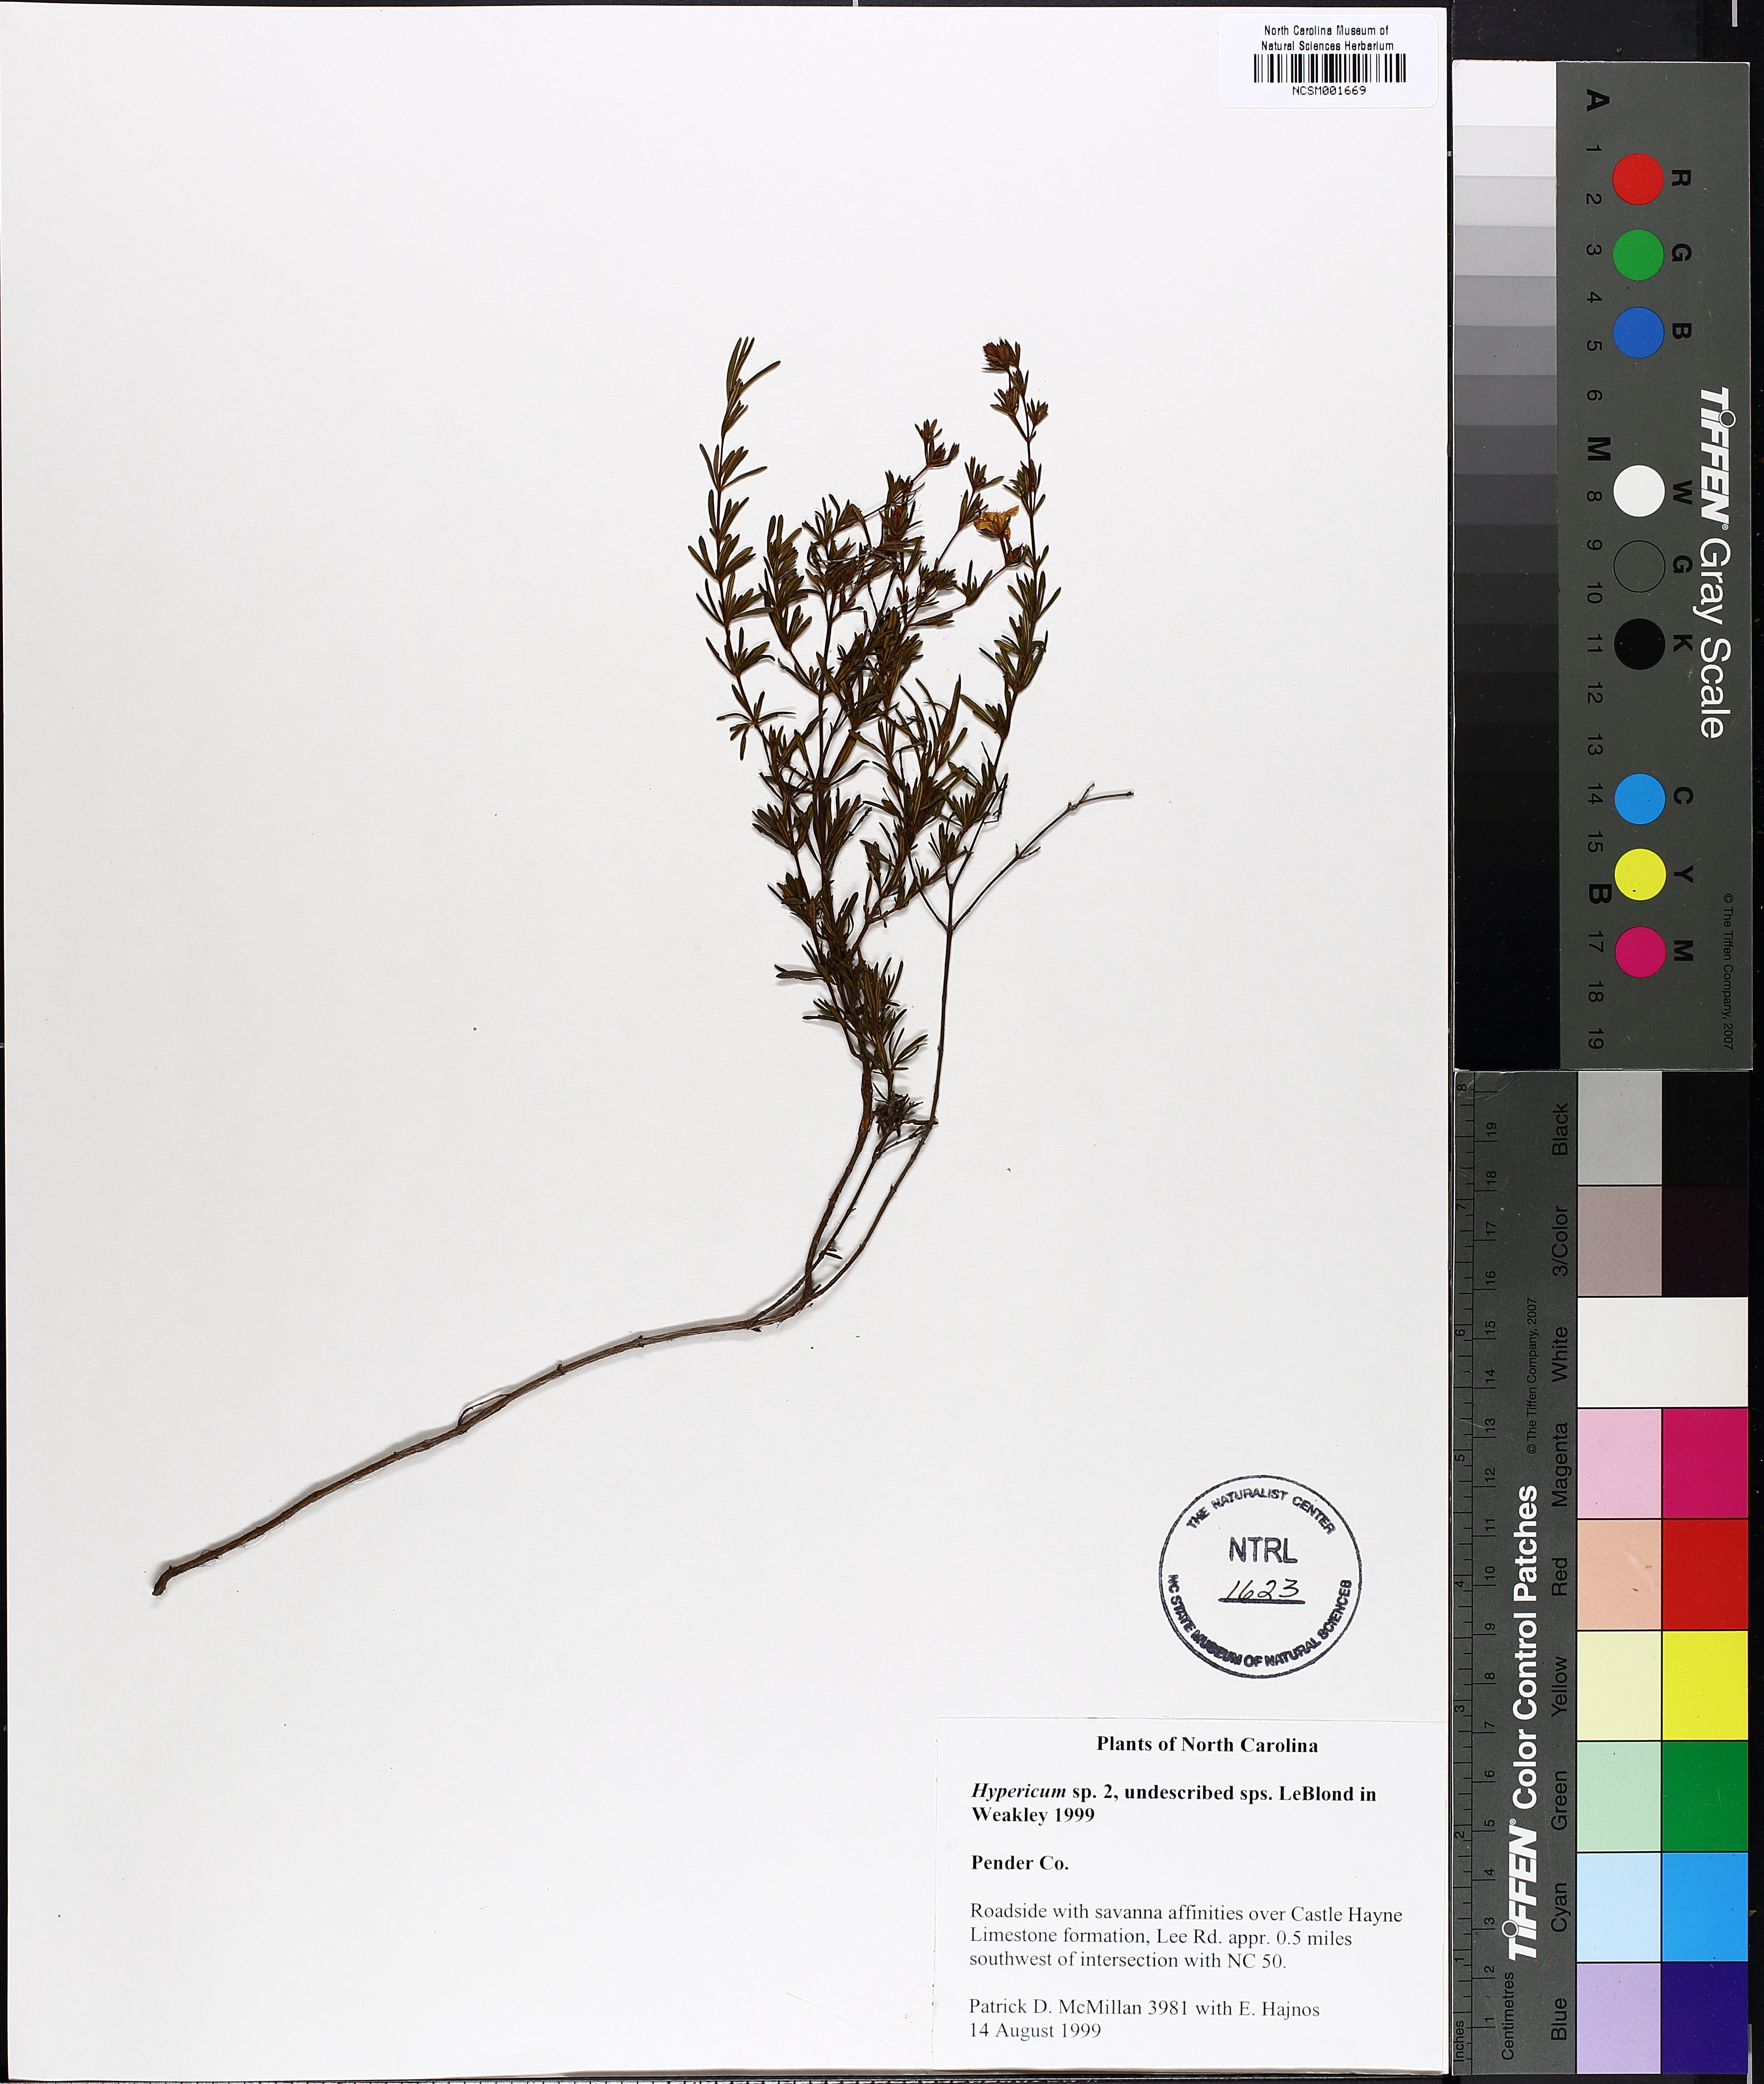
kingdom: Plantae
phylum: Tracheophyta
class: Magnoliopsida
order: Malpighiales
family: Hypericaceae
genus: Hypericum
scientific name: Hypericum
